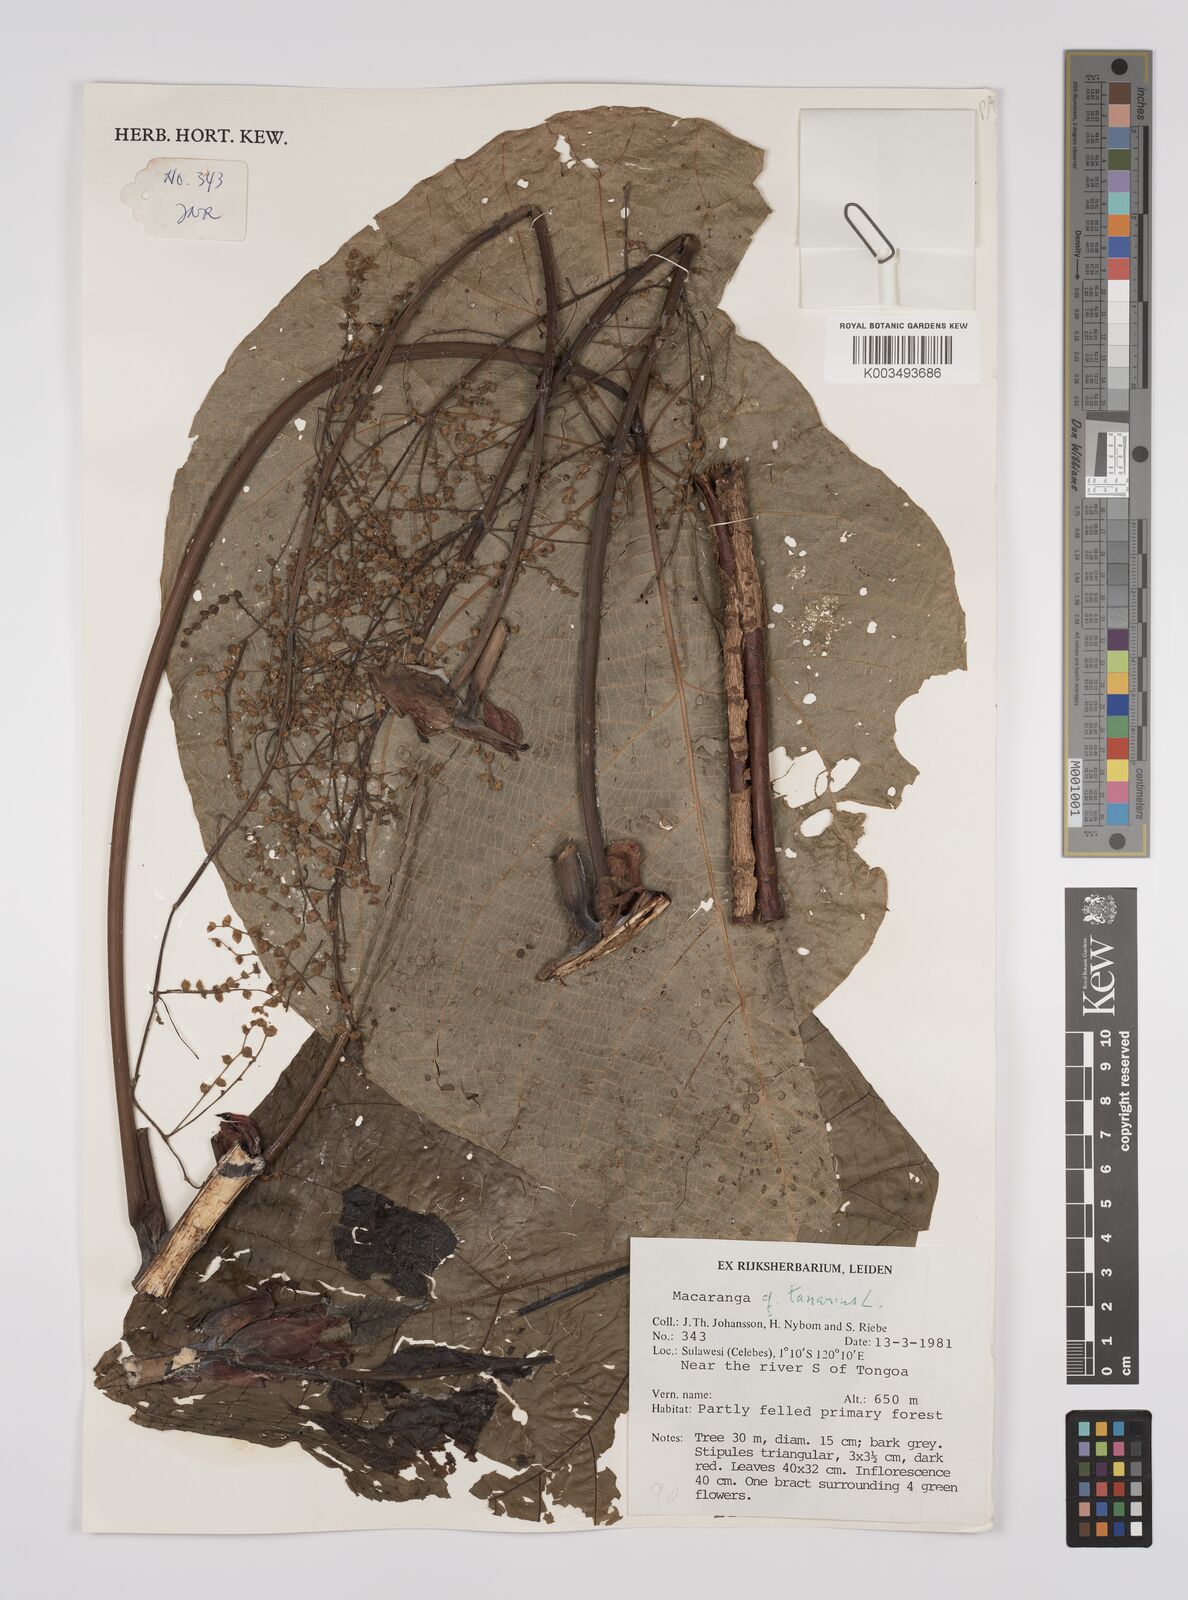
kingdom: Plantae
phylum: Tracheophyta
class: Magnoliopsida
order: Malpighiales
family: Euphorbiaceae
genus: Macaranga
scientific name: Macaranga tanarius
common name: Parasol leaf tree
